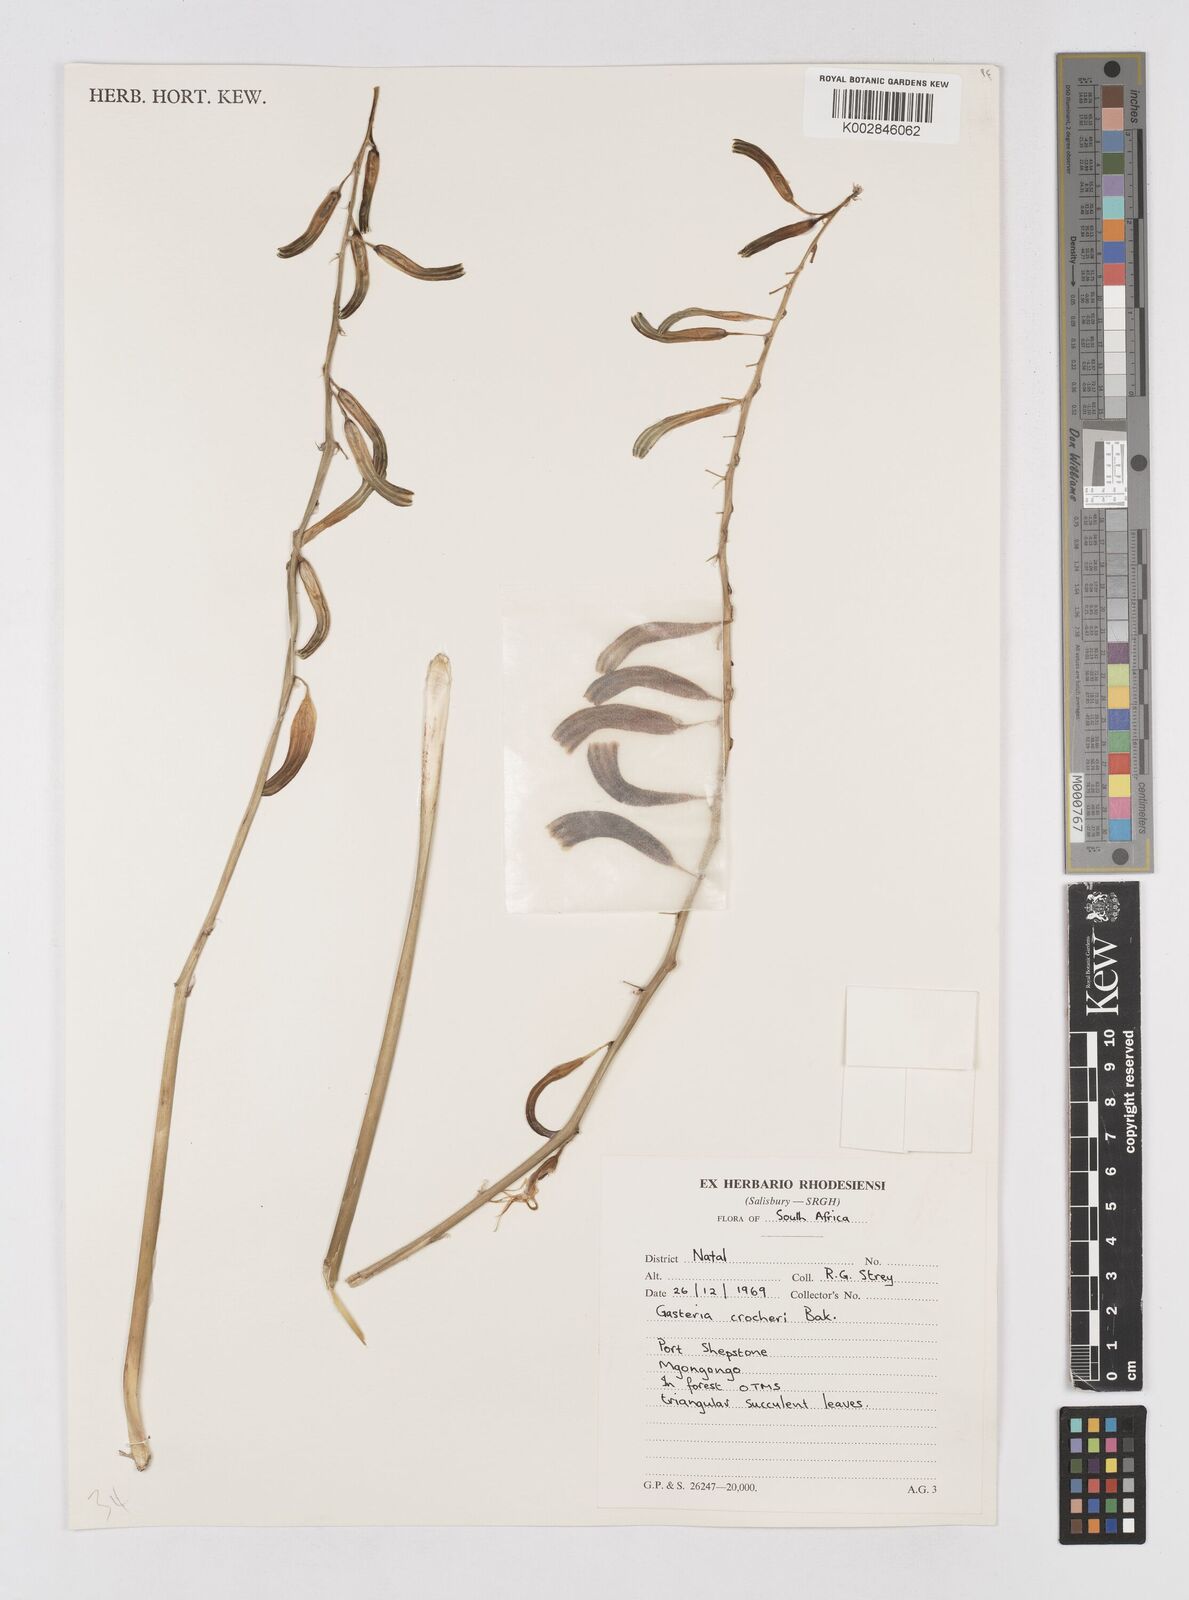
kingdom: Plantae
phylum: Tracheophyta
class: Liliopsida
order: Asparagales
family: Asphodelaceae
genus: Gasteria
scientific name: Gasteria croucheri
